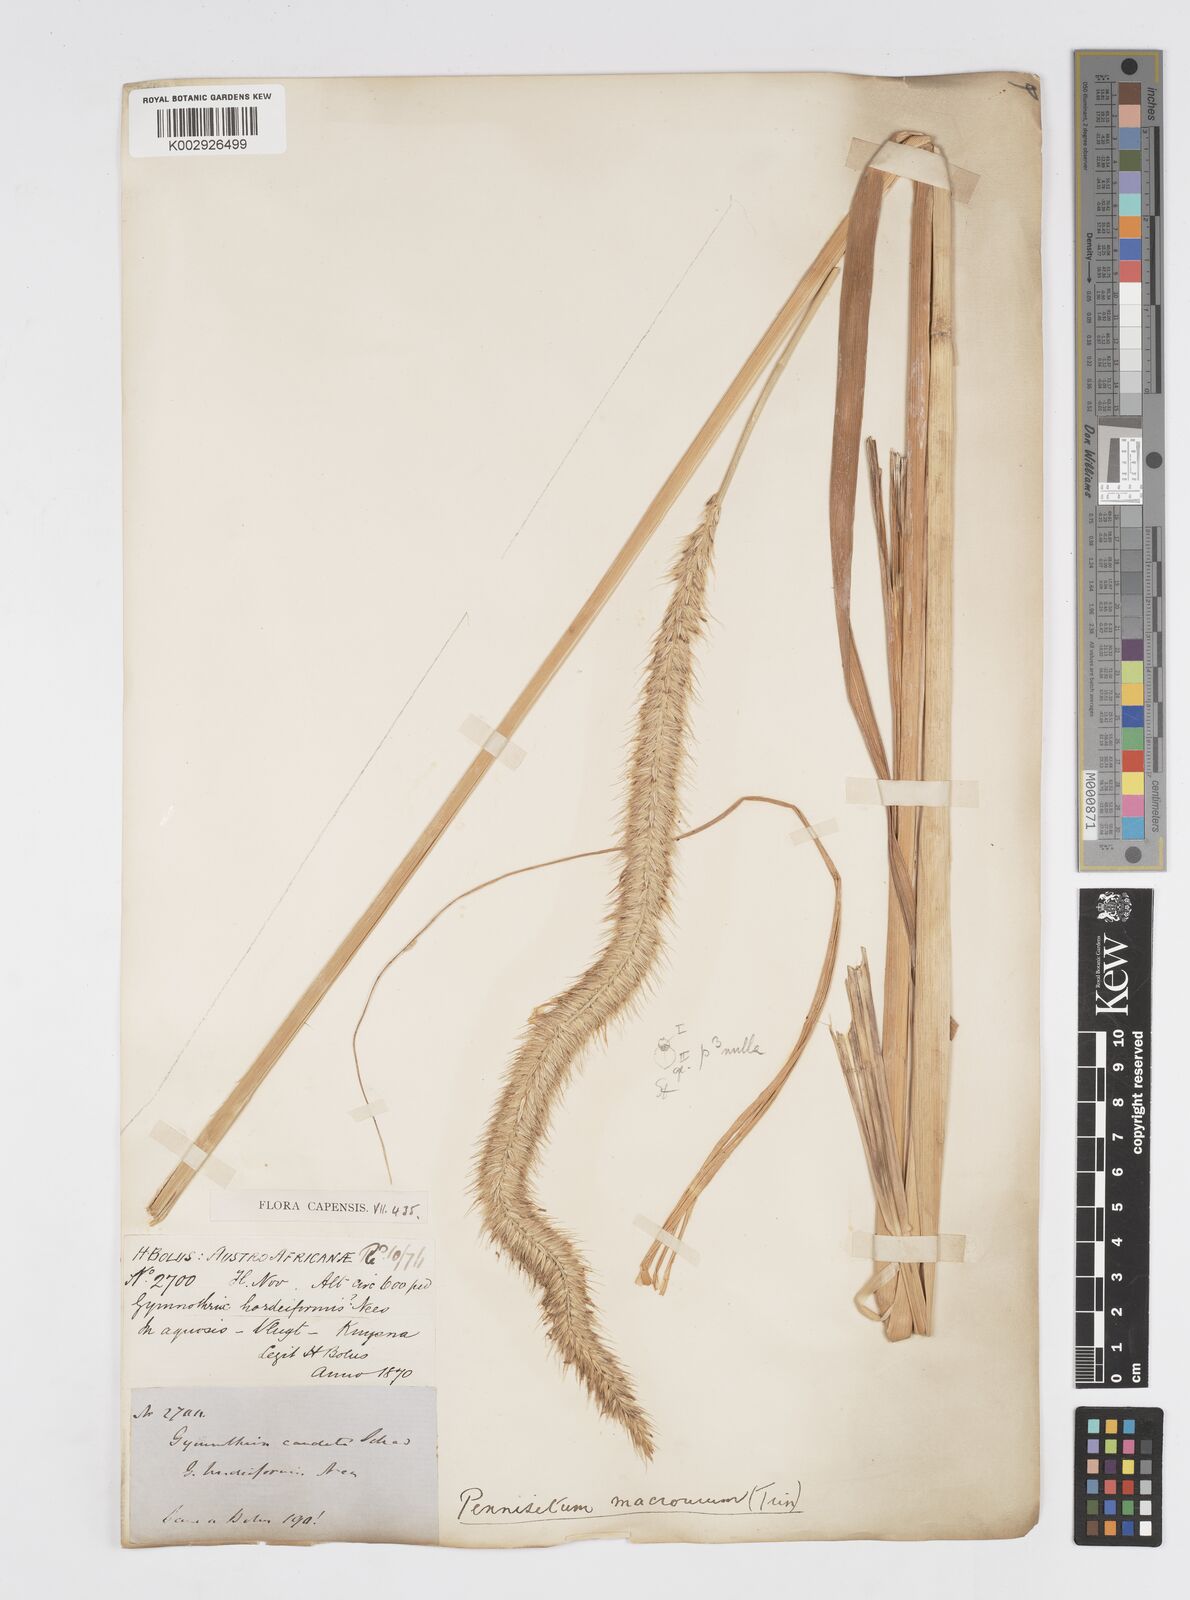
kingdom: Plantae
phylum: Tracheophyta
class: Liliopsida
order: Poales
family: Poaceae
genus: Cenchrus
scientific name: Cenchrus caudatus
